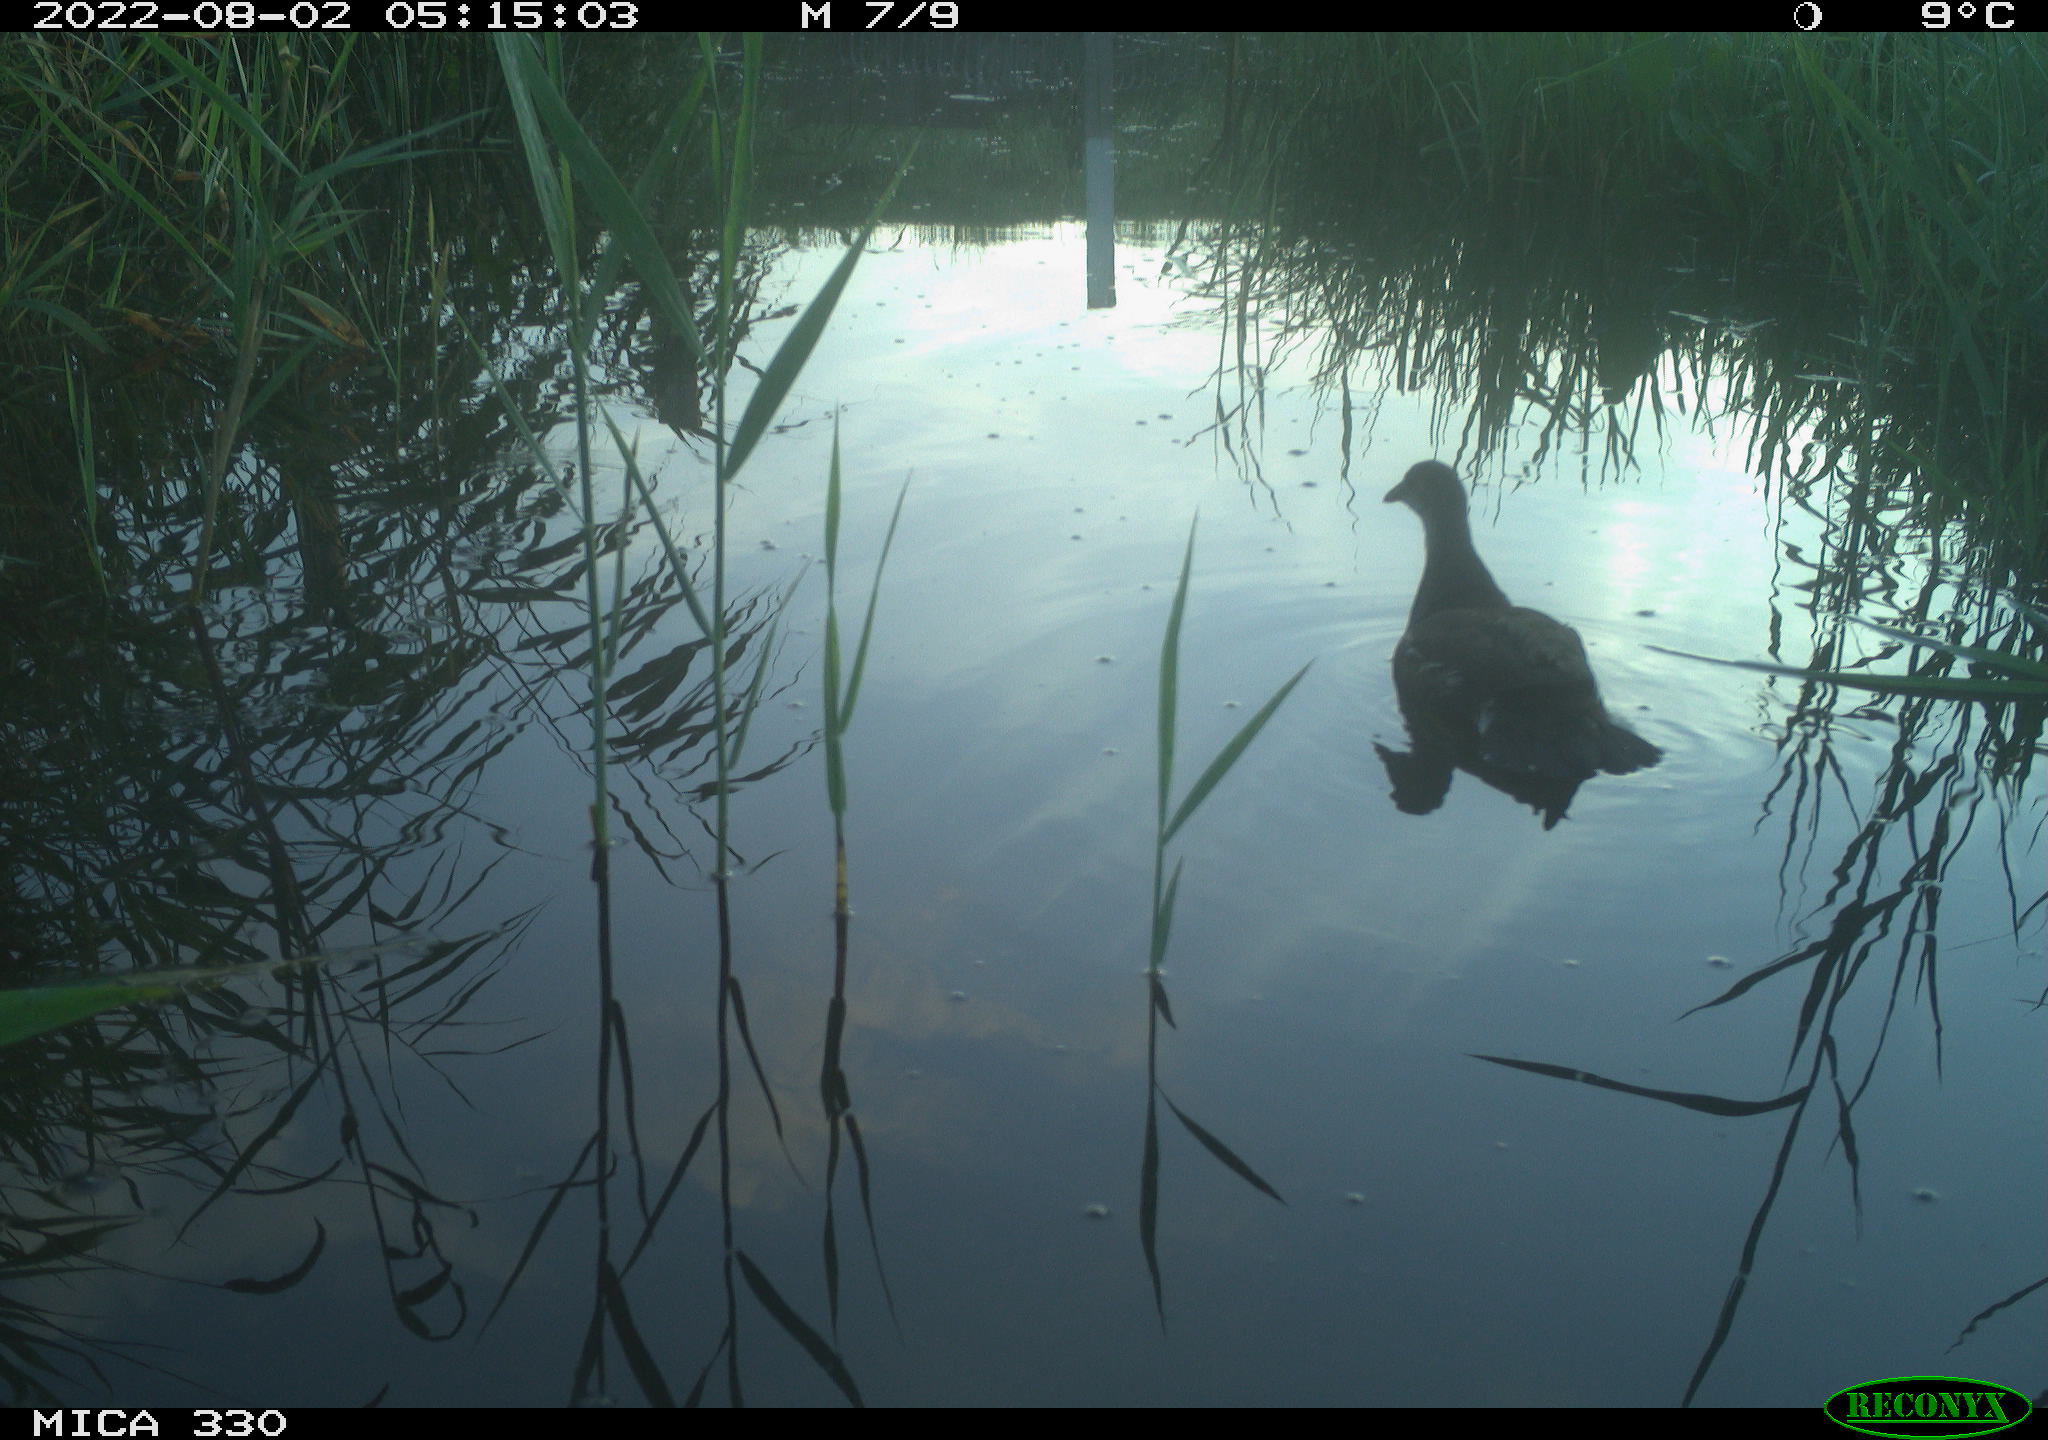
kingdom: Animalia
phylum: Chordata
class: Aves
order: Gruiformes
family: Rallidae
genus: Gallinula
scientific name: Gallinula chloropus
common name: Common moorhen
